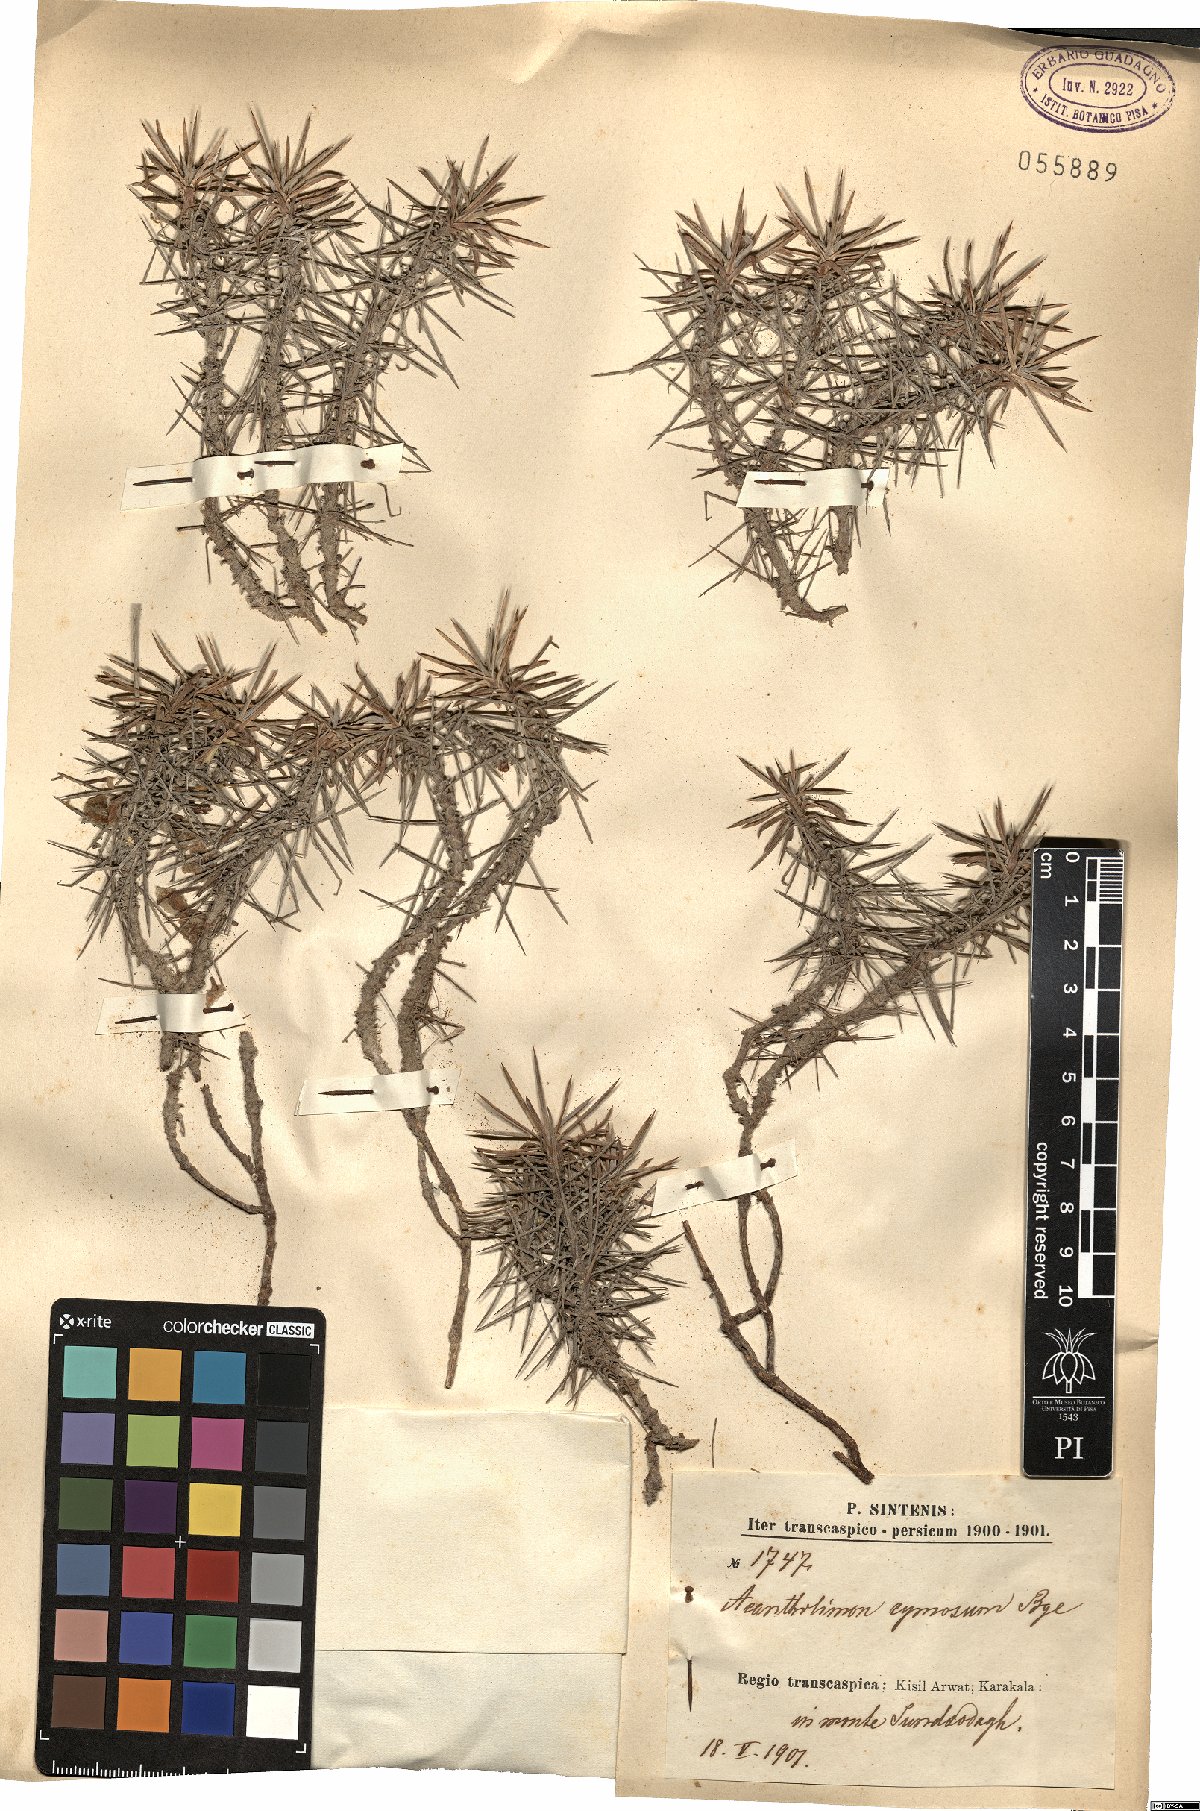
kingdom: Plantae
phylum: Tracheophyta
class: Magnoliopsida
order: Caryophyllales
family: Plumbaginaceae
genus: Acantholimon
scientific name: Acantholimon cymosum
